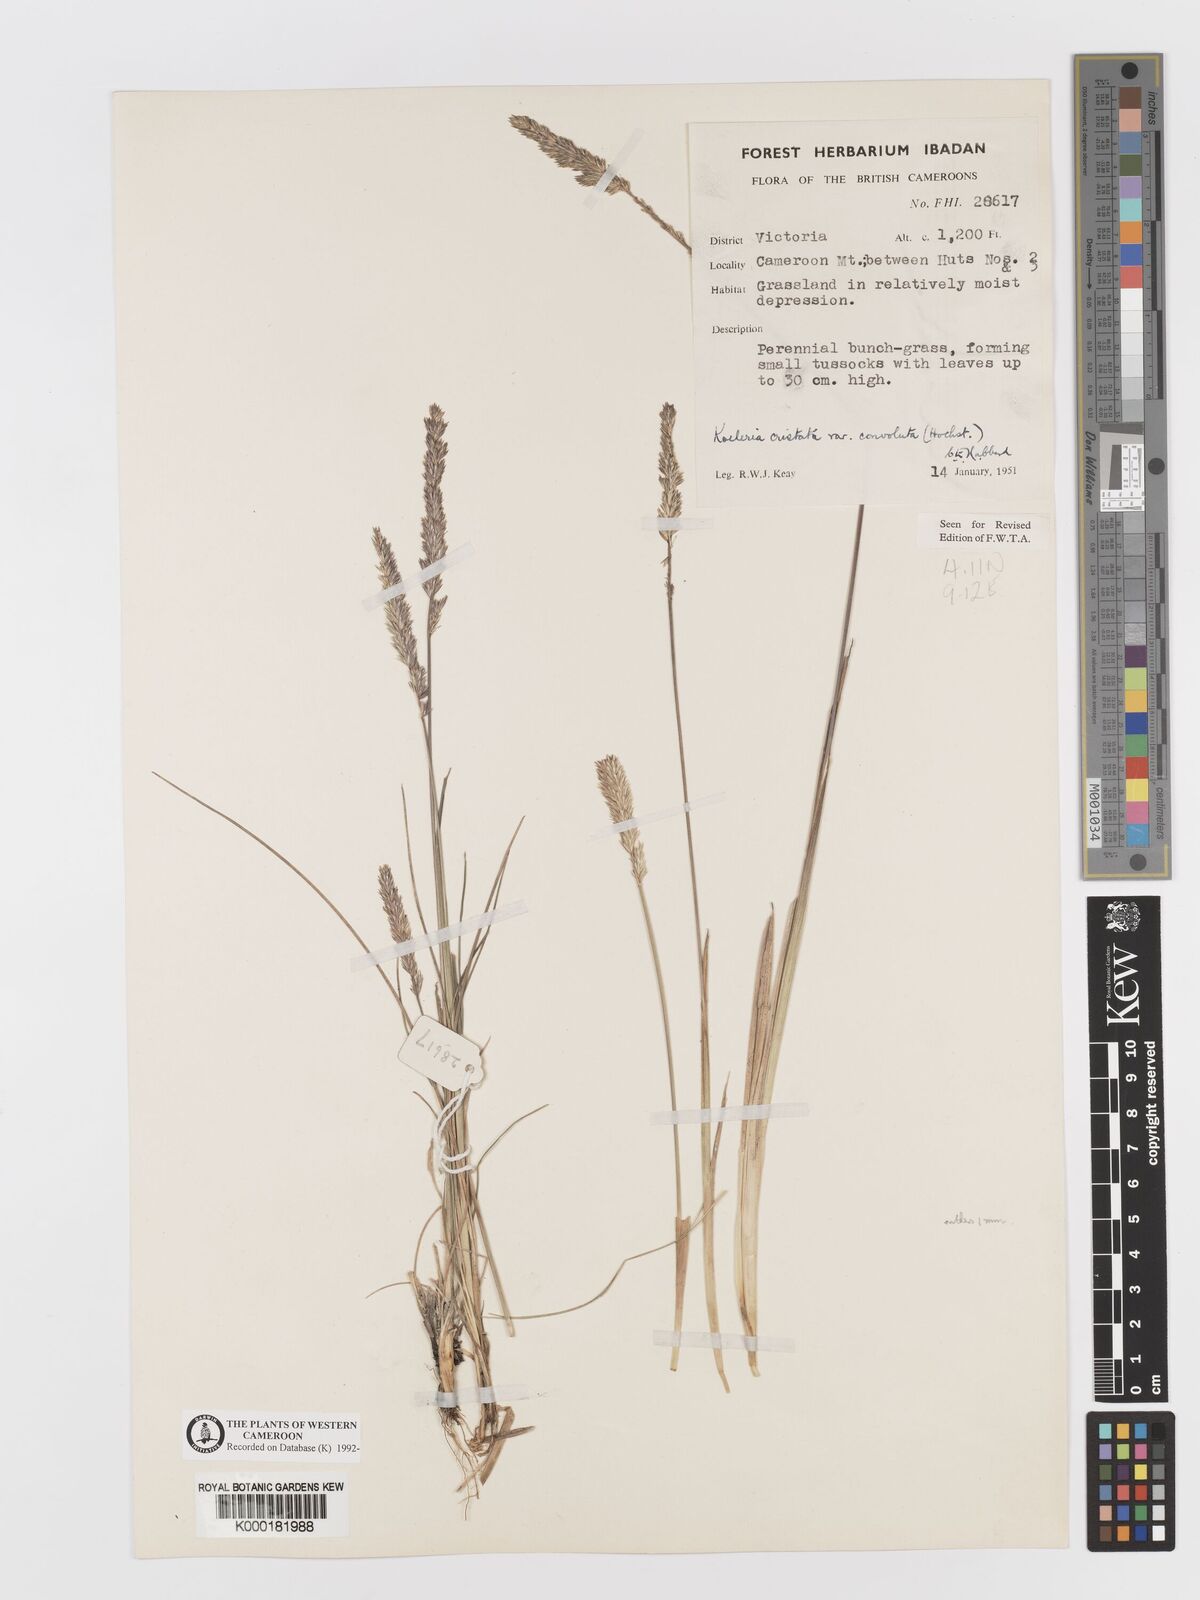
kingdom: Plantae
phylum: Tracheophyta
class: Liliopsida
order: Poales
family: Poaceae
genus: Koeleria
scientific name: Koeleria capensis
